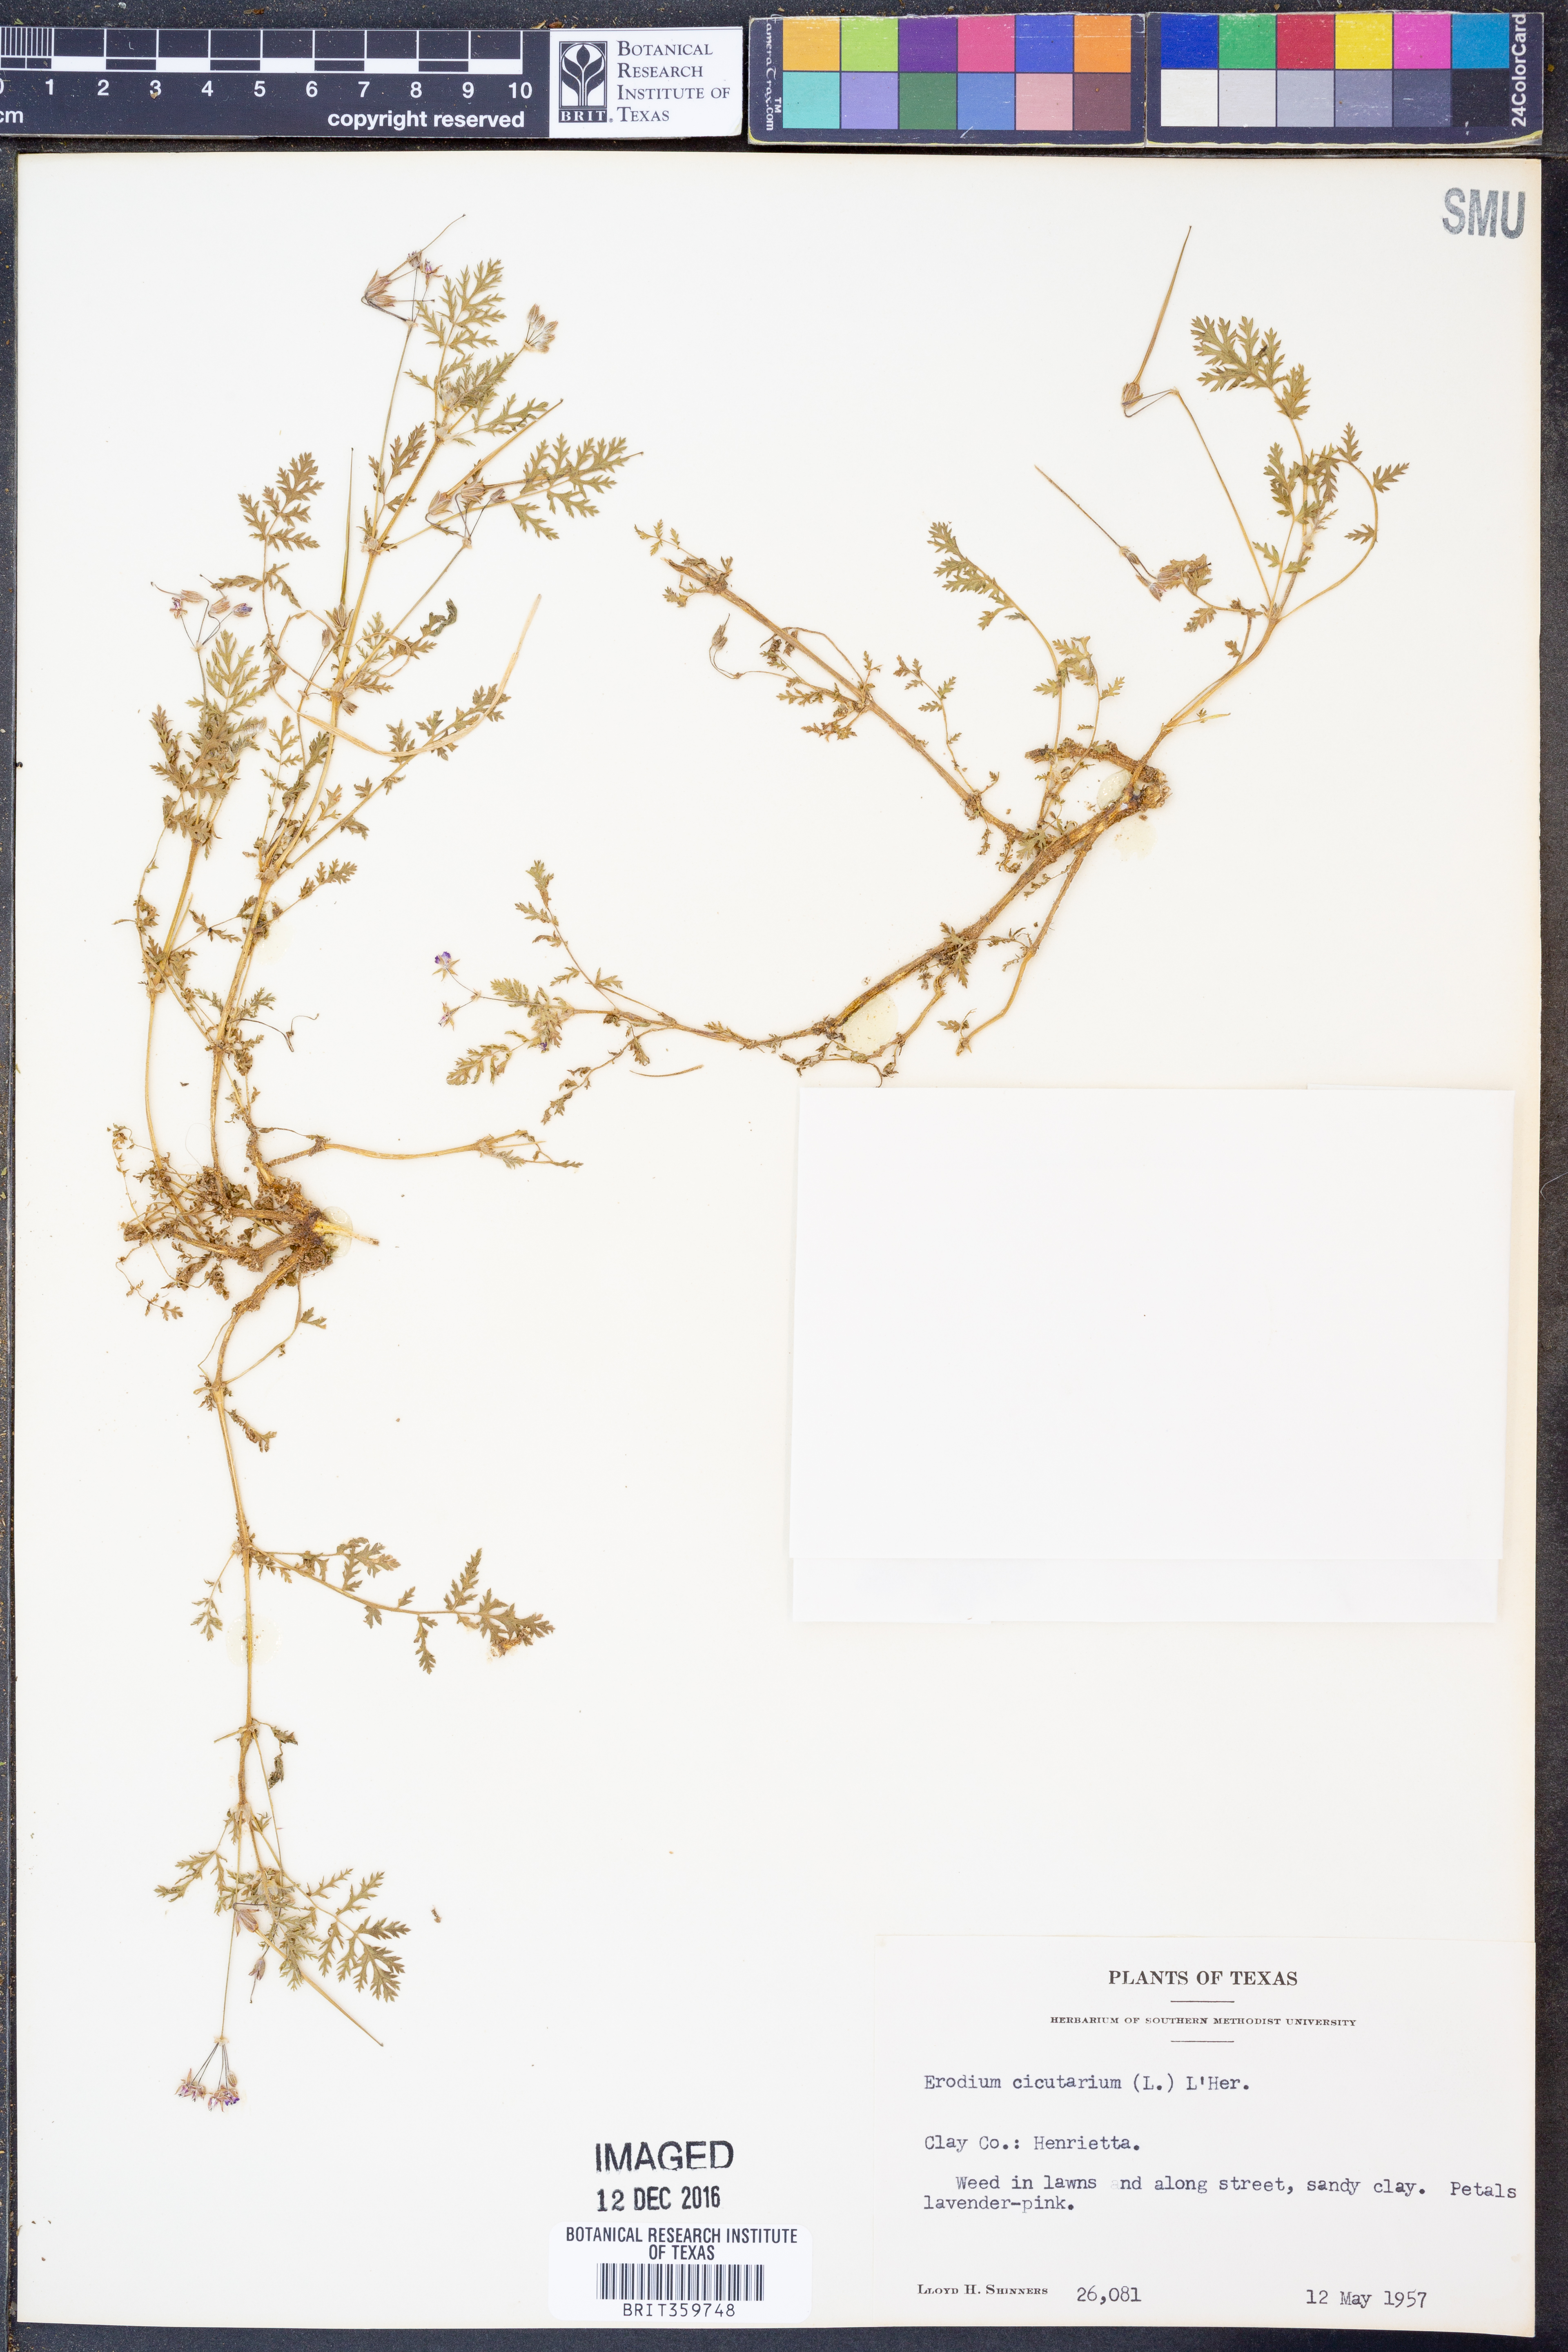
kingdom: Plantae
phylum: Tracheophyta
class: Magnoliopsida
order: Geraniales
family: Geraniaceae
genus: Erodium
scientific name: Erodium cicutarium
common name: Common stork's-bill
